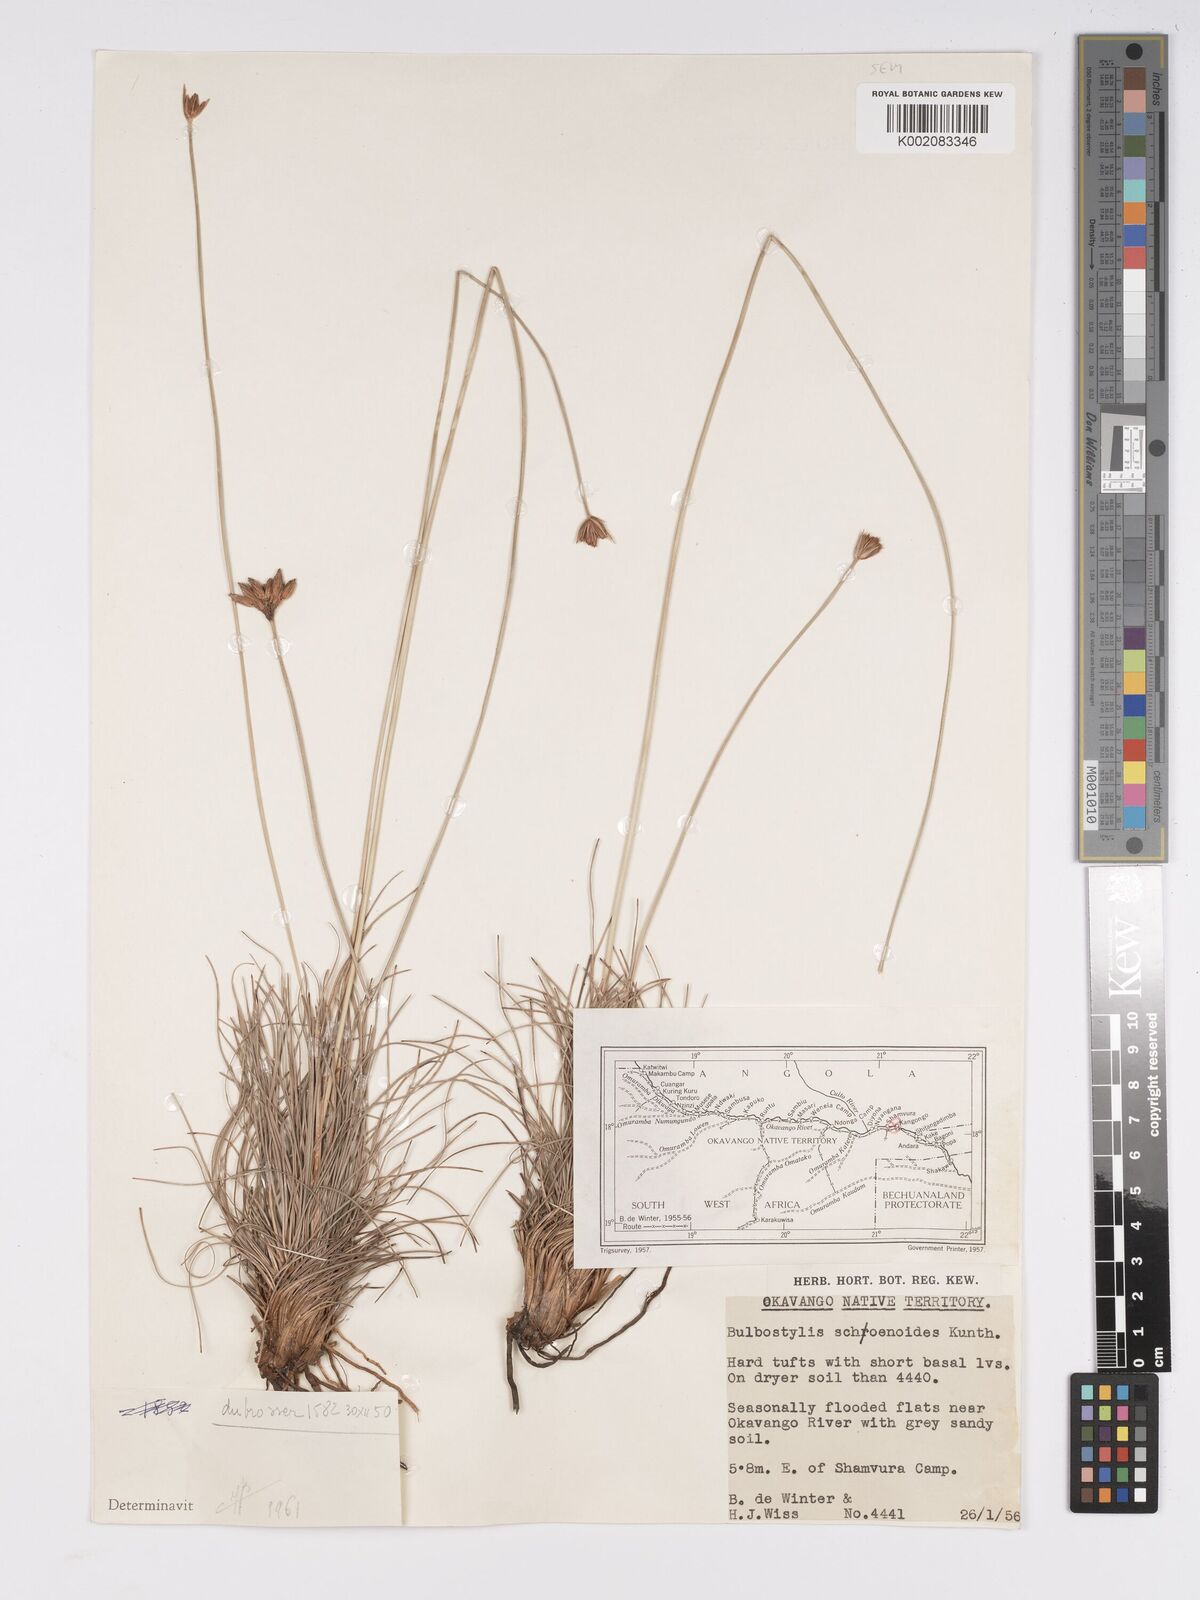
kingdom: Plantae
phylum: Tracheophyta
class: Liliopsida
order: Poales
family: Cyperaceae
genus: Bulbostylis
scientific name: Bulbostylis schoenoides
